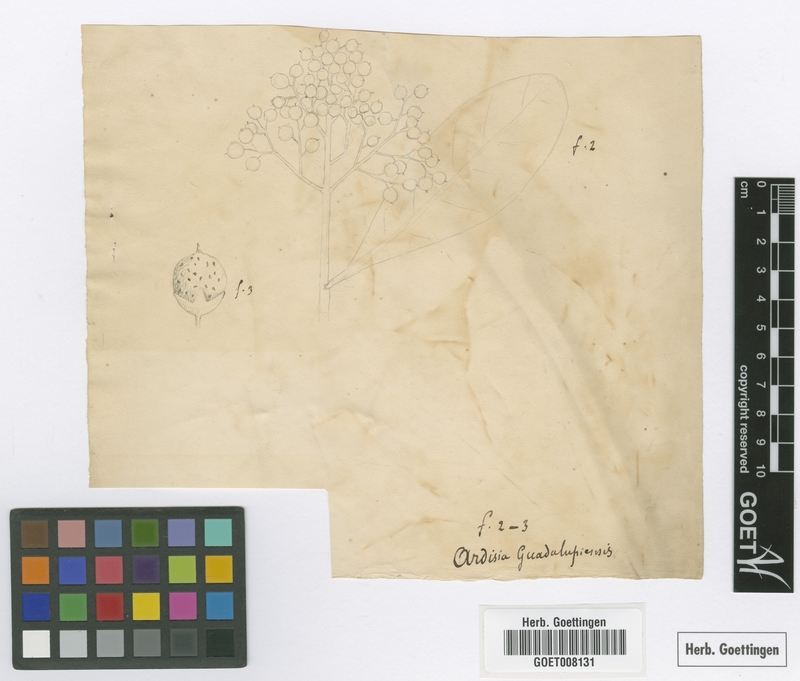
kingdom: Plantae
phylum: Tracheophyta
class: Magnoliopsida
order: Ericales
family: Primulaceae
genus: Myrsine
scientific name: Myrsine coriacea
